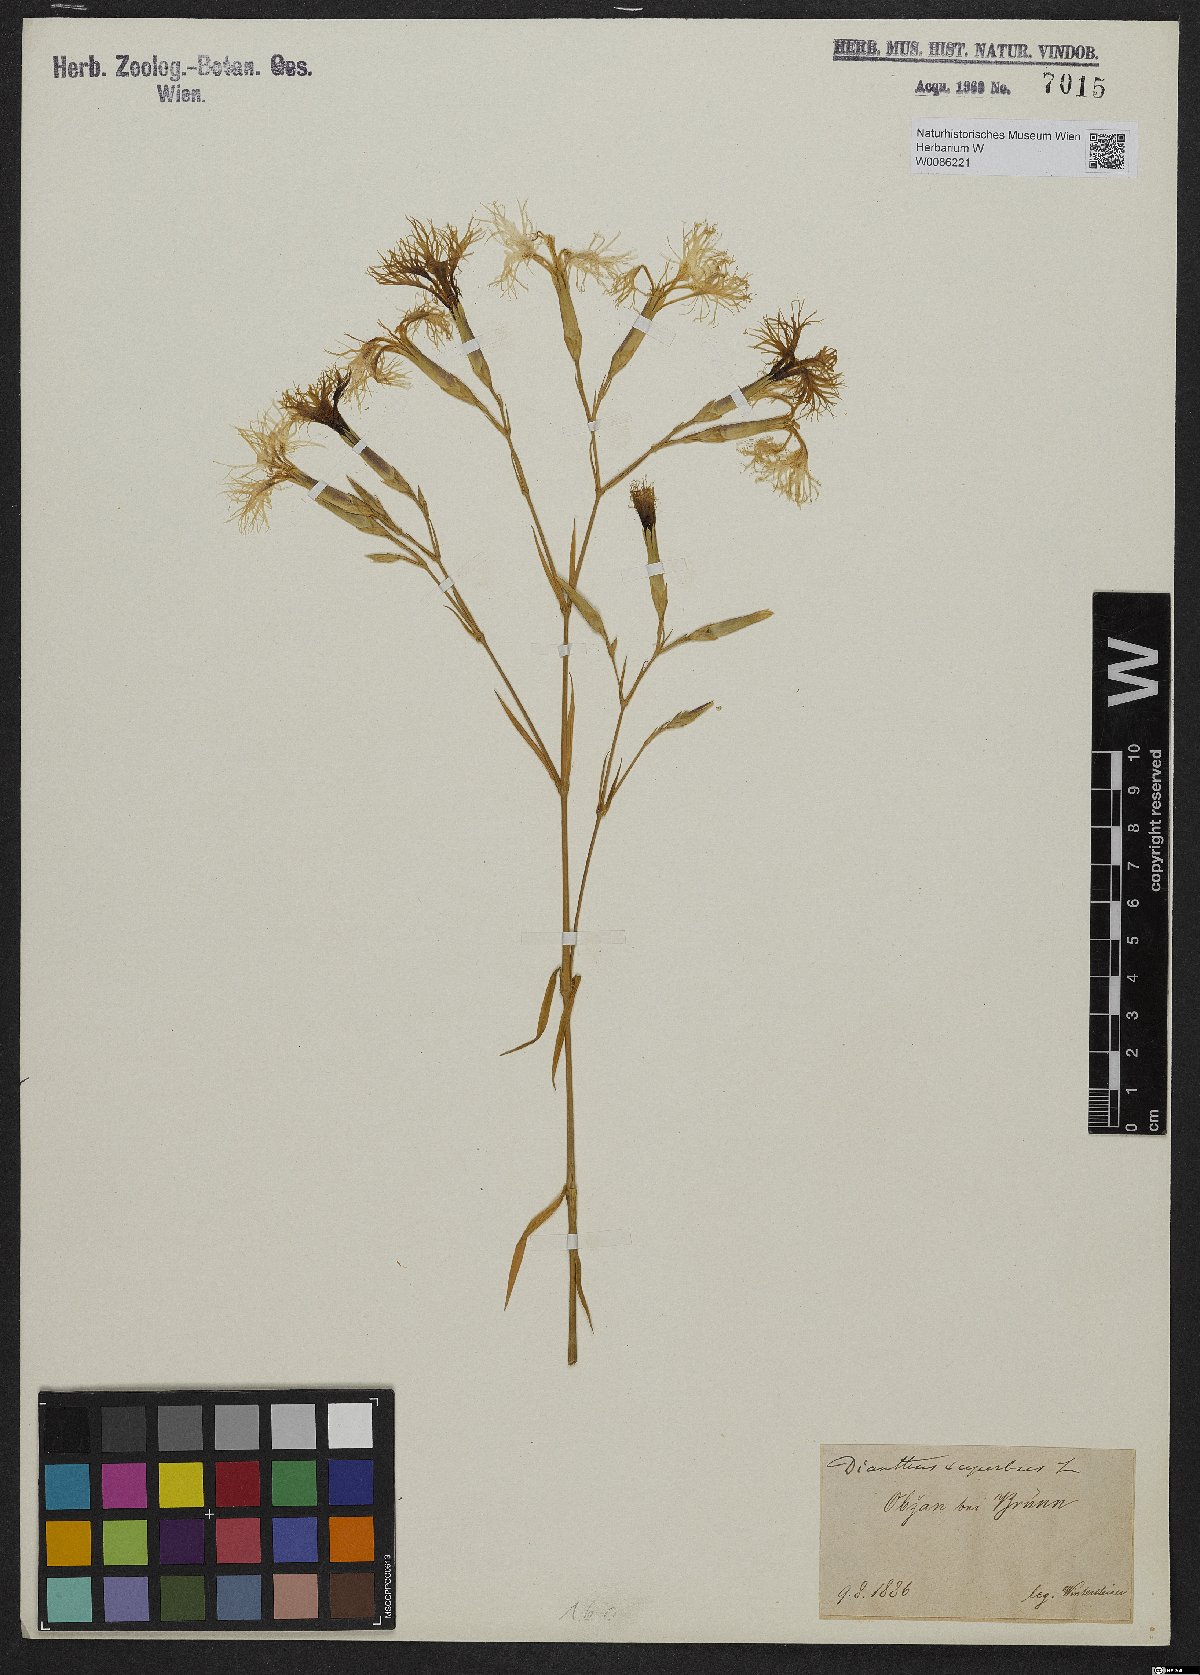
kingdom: Plantae
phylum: Tracheophyta
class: Magnoliopsida
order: Caryophyllales
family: Caryophyllaceae
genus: Dianthus
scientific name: Dianthus superbus
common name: Fringed pink
